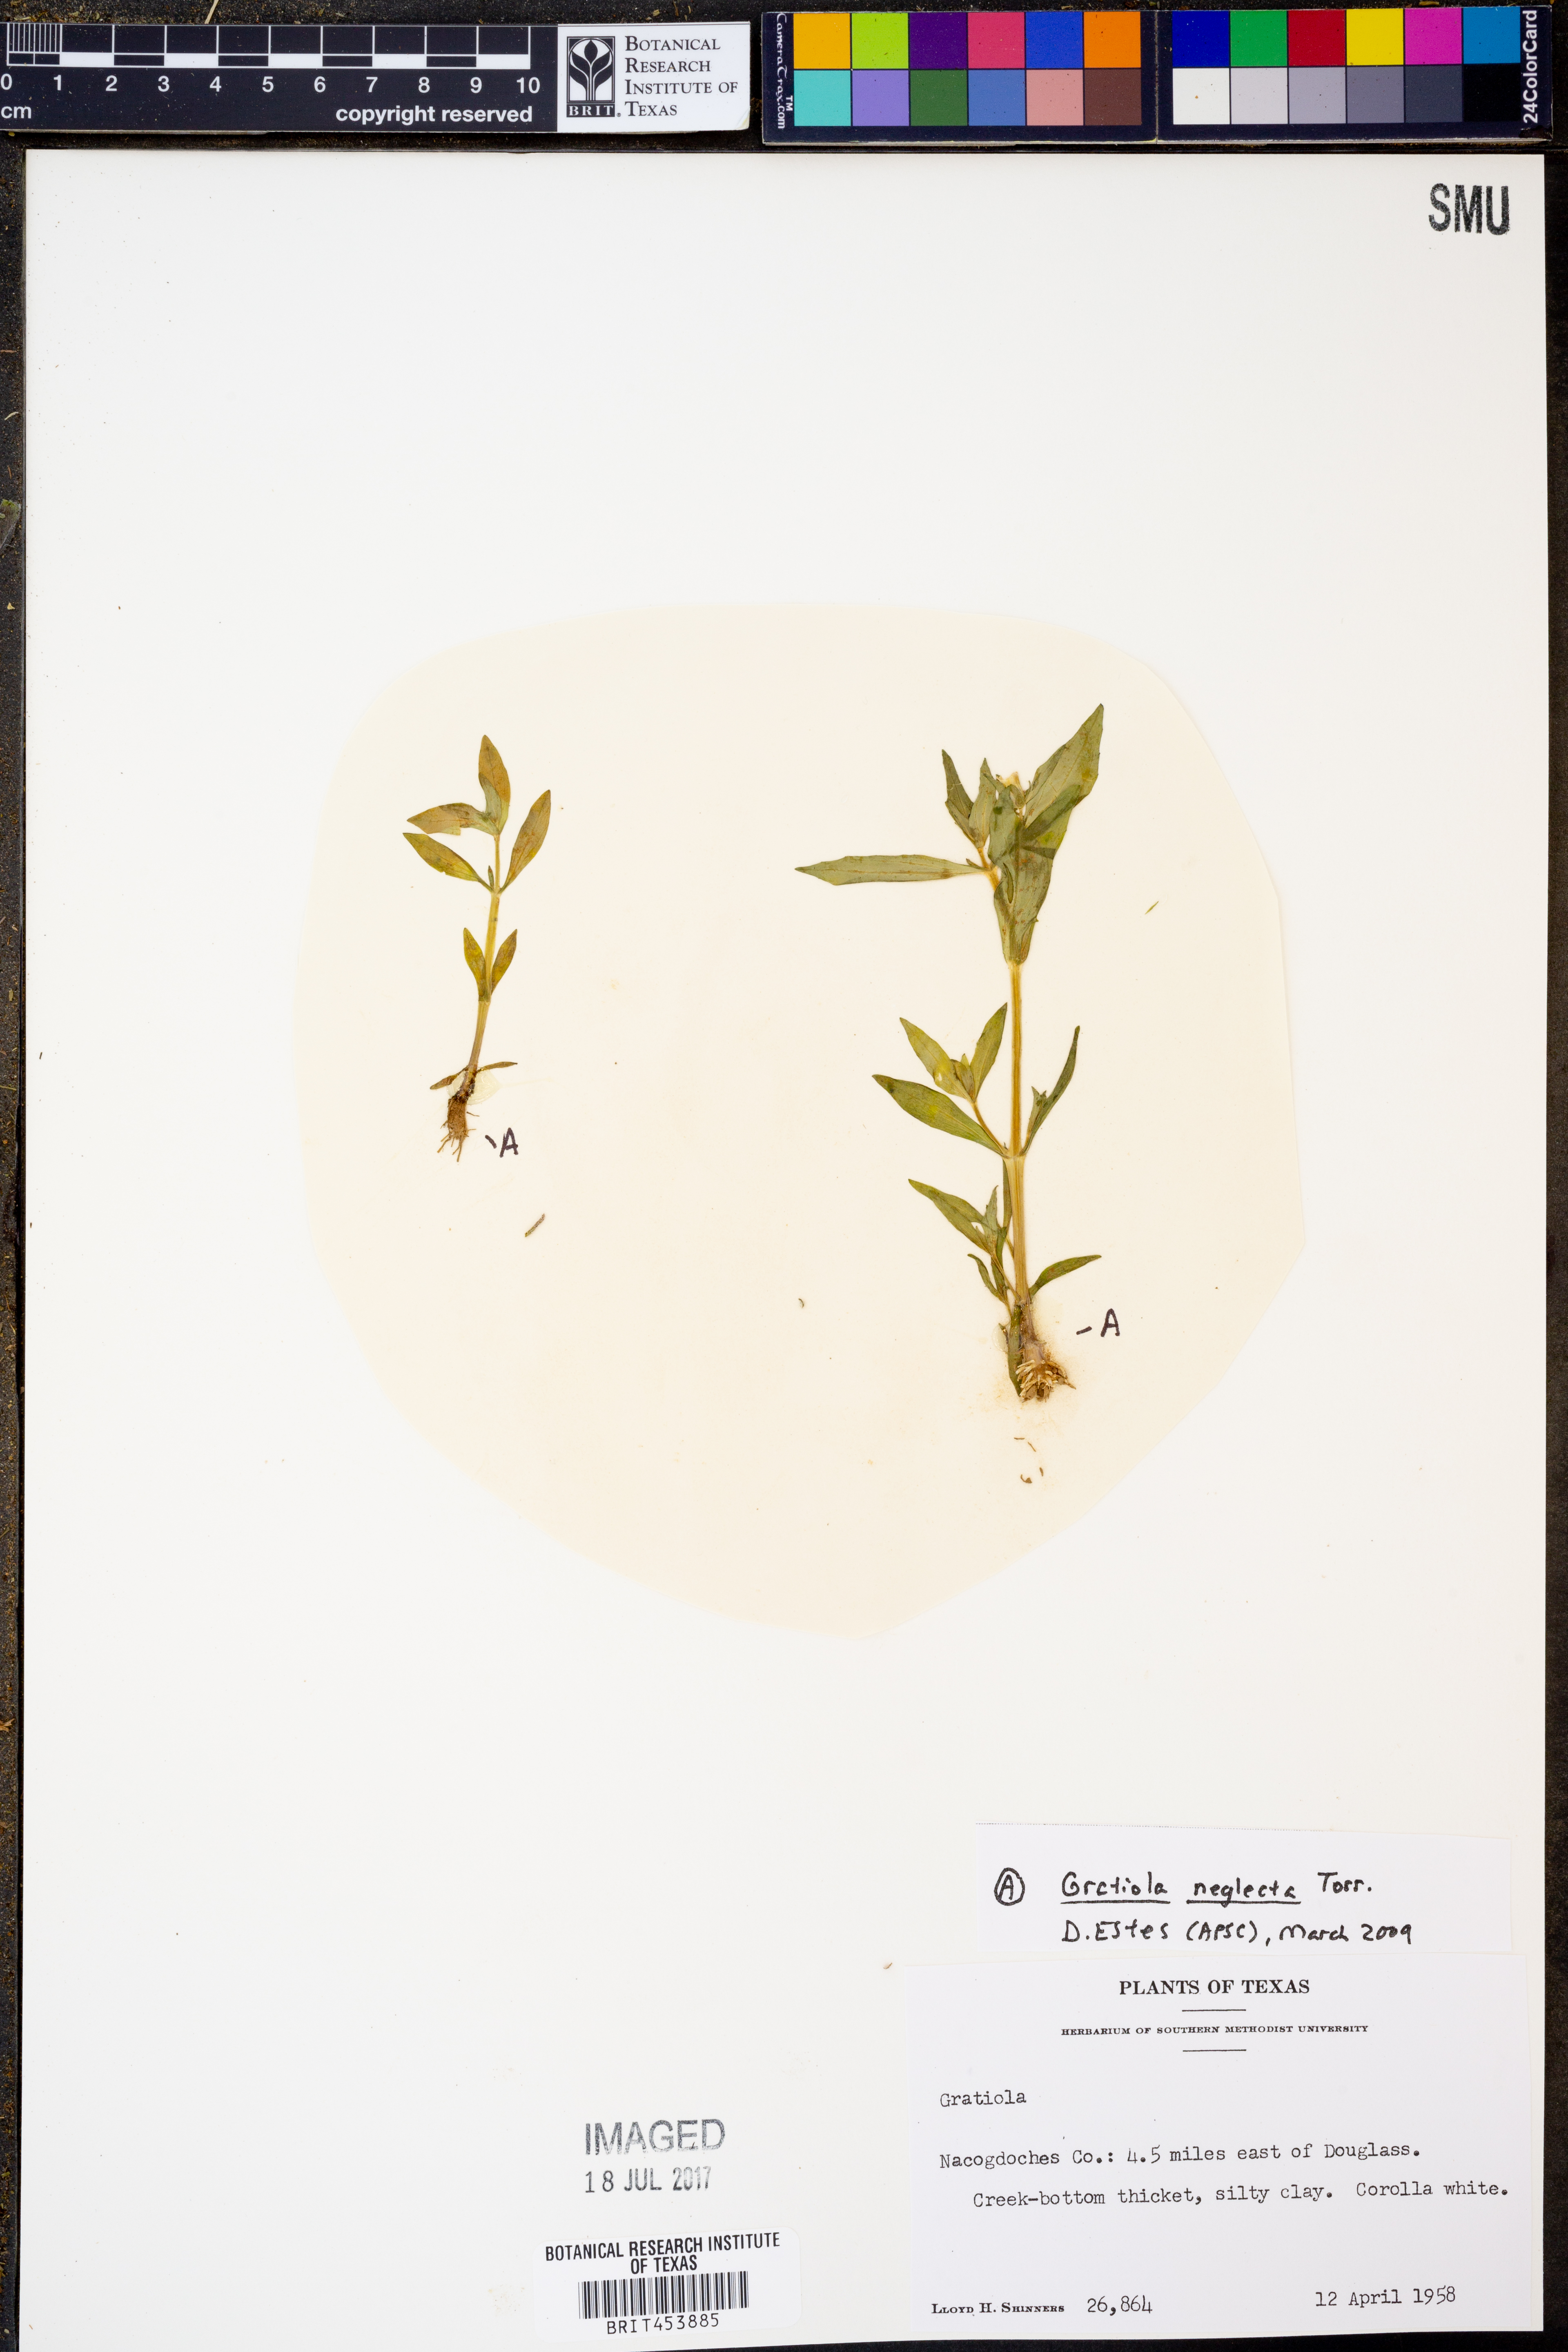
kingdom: Plantae
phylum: Tracheophyta
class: Magnoliopsida
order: Lamiales
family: Plantaginaceae
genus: Gratiola
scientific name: Gratiola neglecta
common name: American hedge-hyssop
